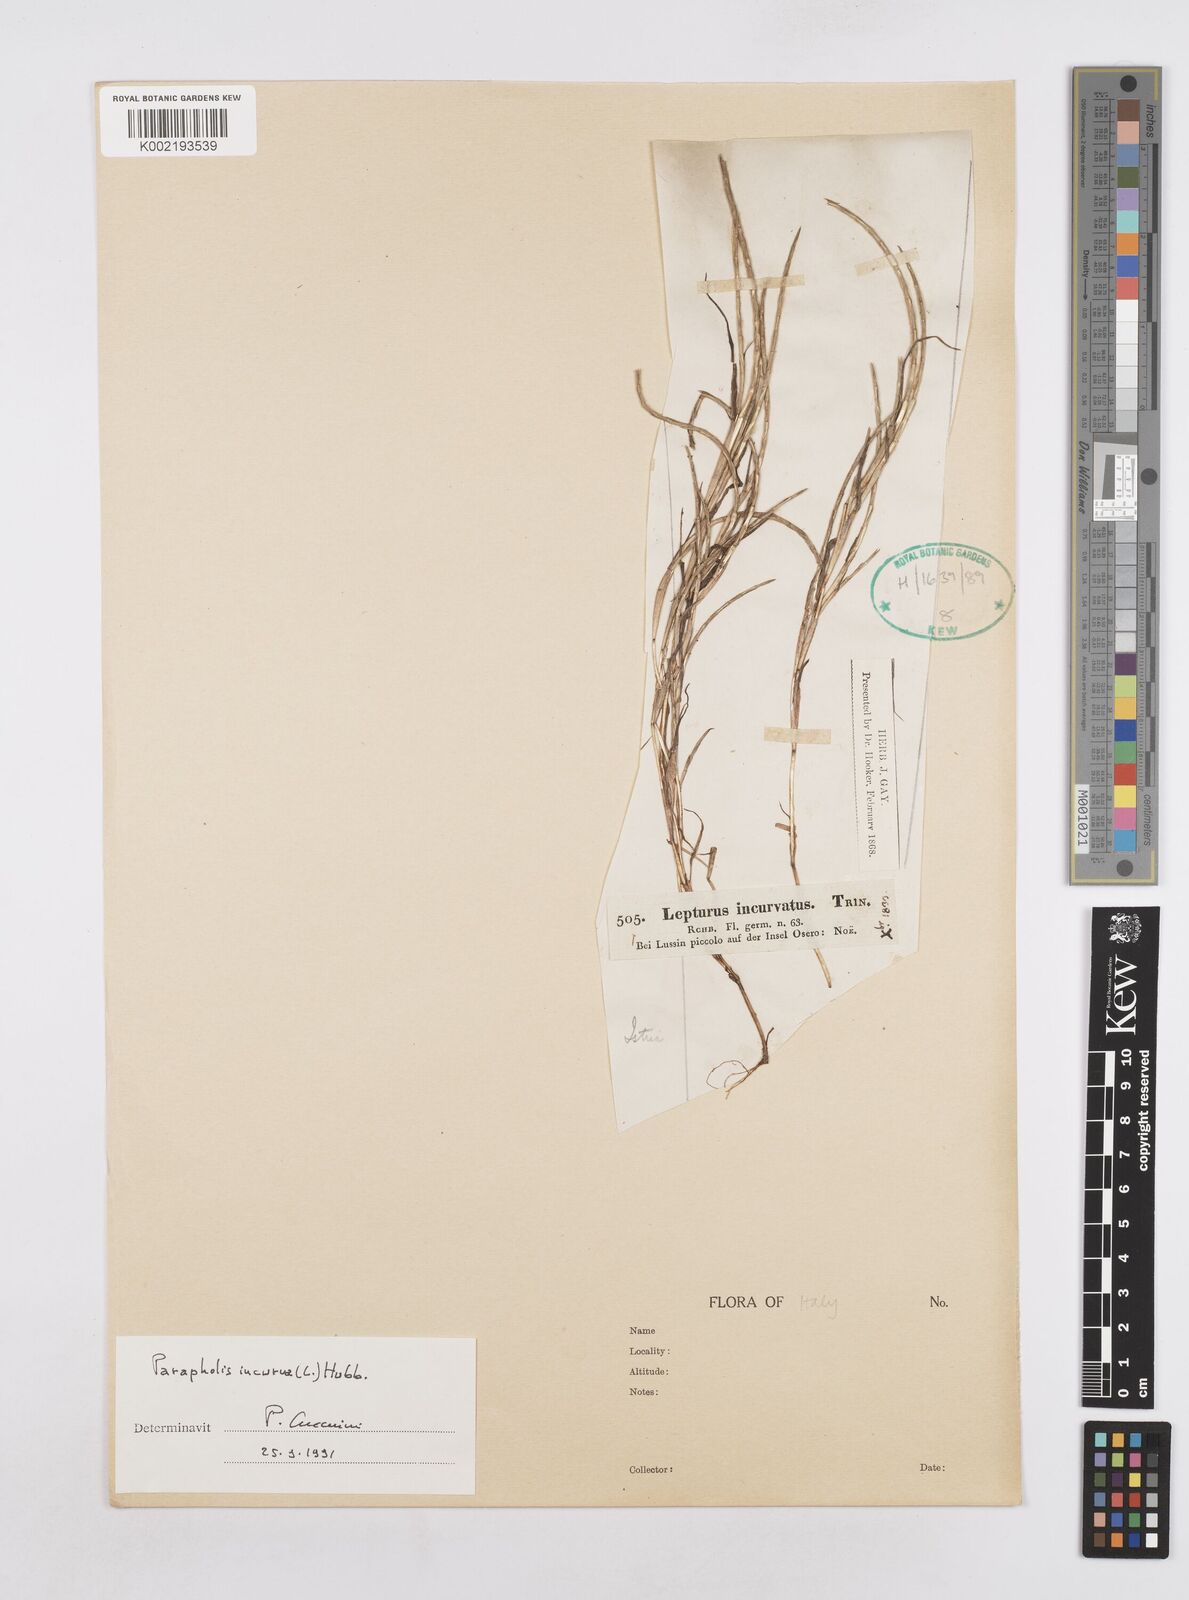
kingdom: Plantae
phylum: Tracheophyta
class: Liliopsida
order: Poales
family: Poaceae
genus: Parapholis
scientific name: Parapholis incurva
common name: Curved sicklegrass
